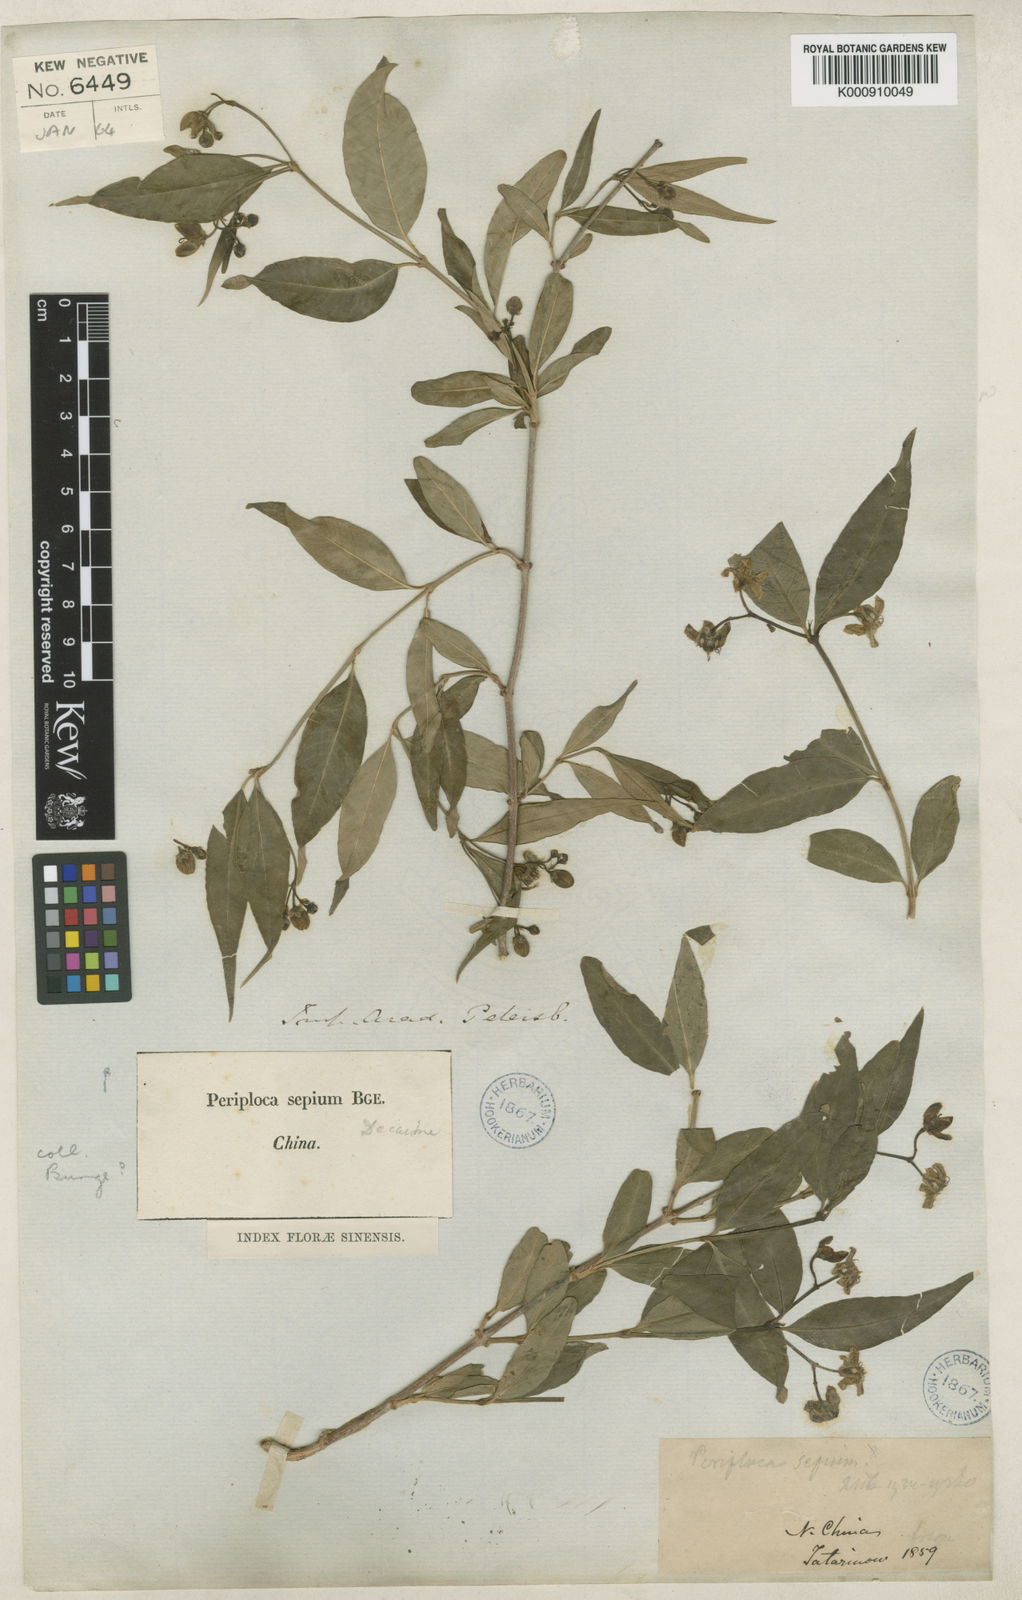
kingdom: Plantae
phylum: Tracheophyta
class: Magnoliopsida
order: Gentianales
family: Apocynaceae
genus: Periploca
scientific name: Periploca sepium
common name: Chinese silkvine
